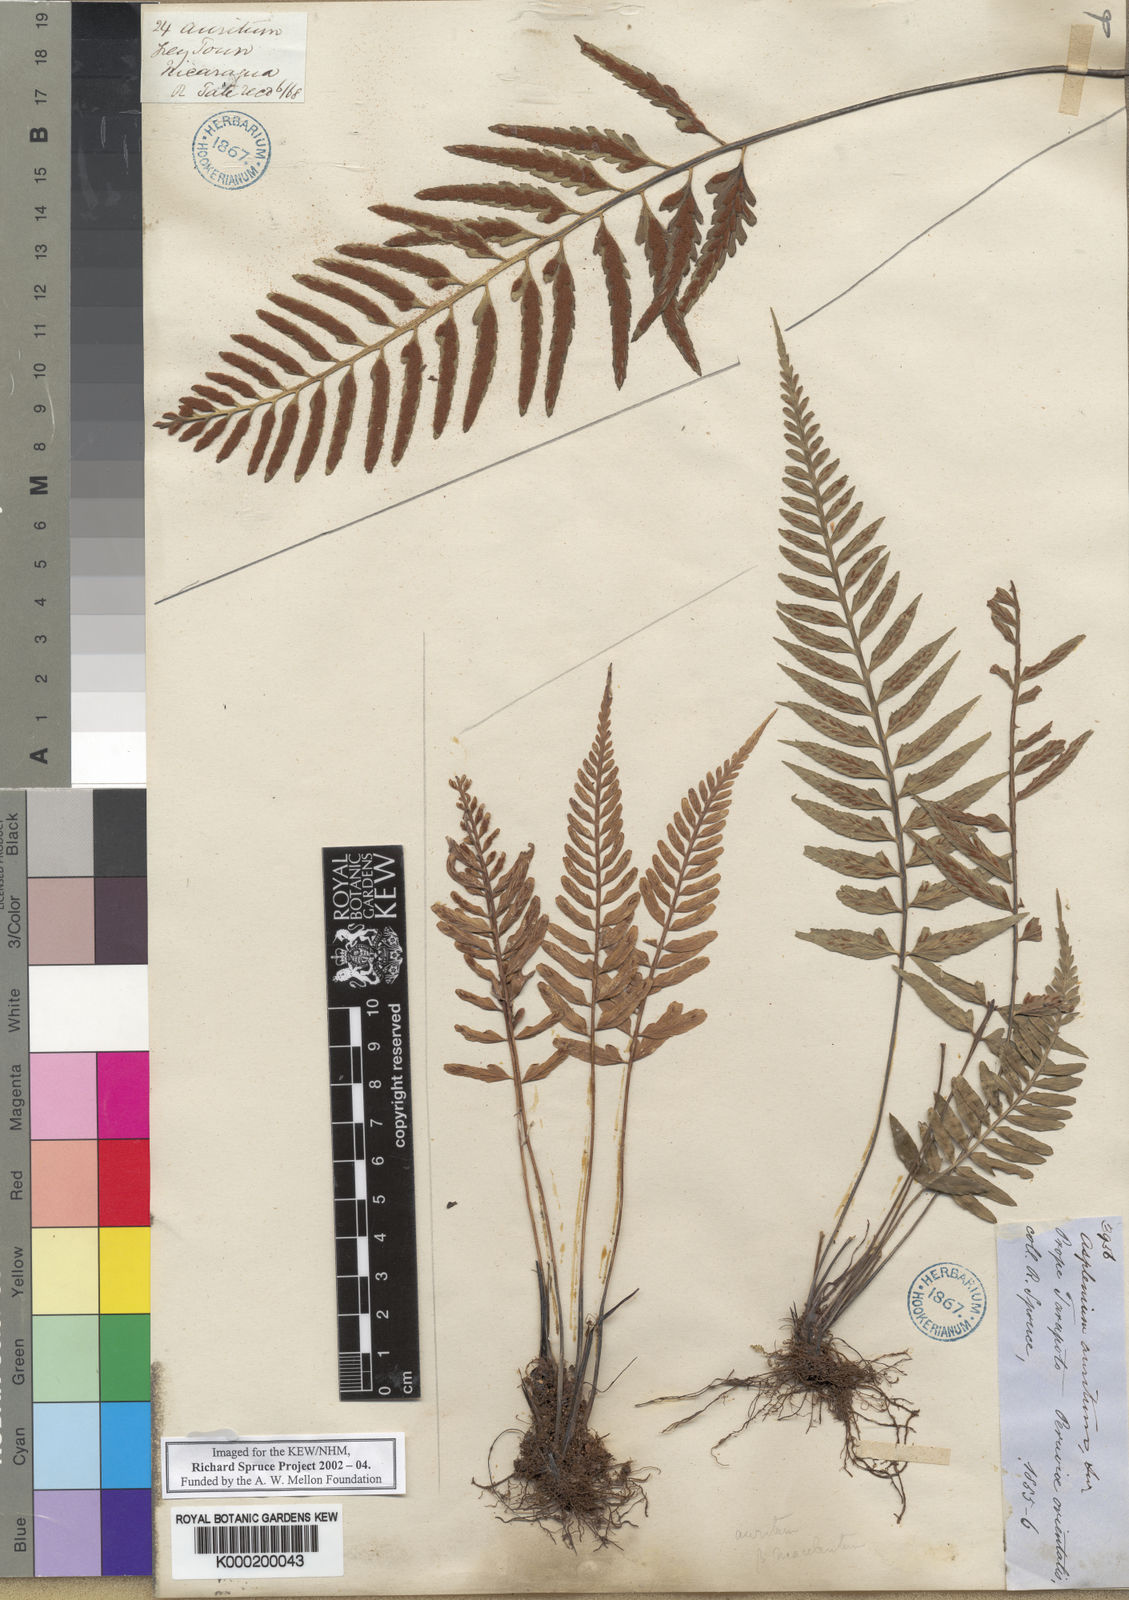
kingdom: Plantae
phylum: Tracheophyta
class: Polypodiopsida
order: Polypodiales
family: Aspleniaceae
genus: Asplenium
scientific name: Asplenium
